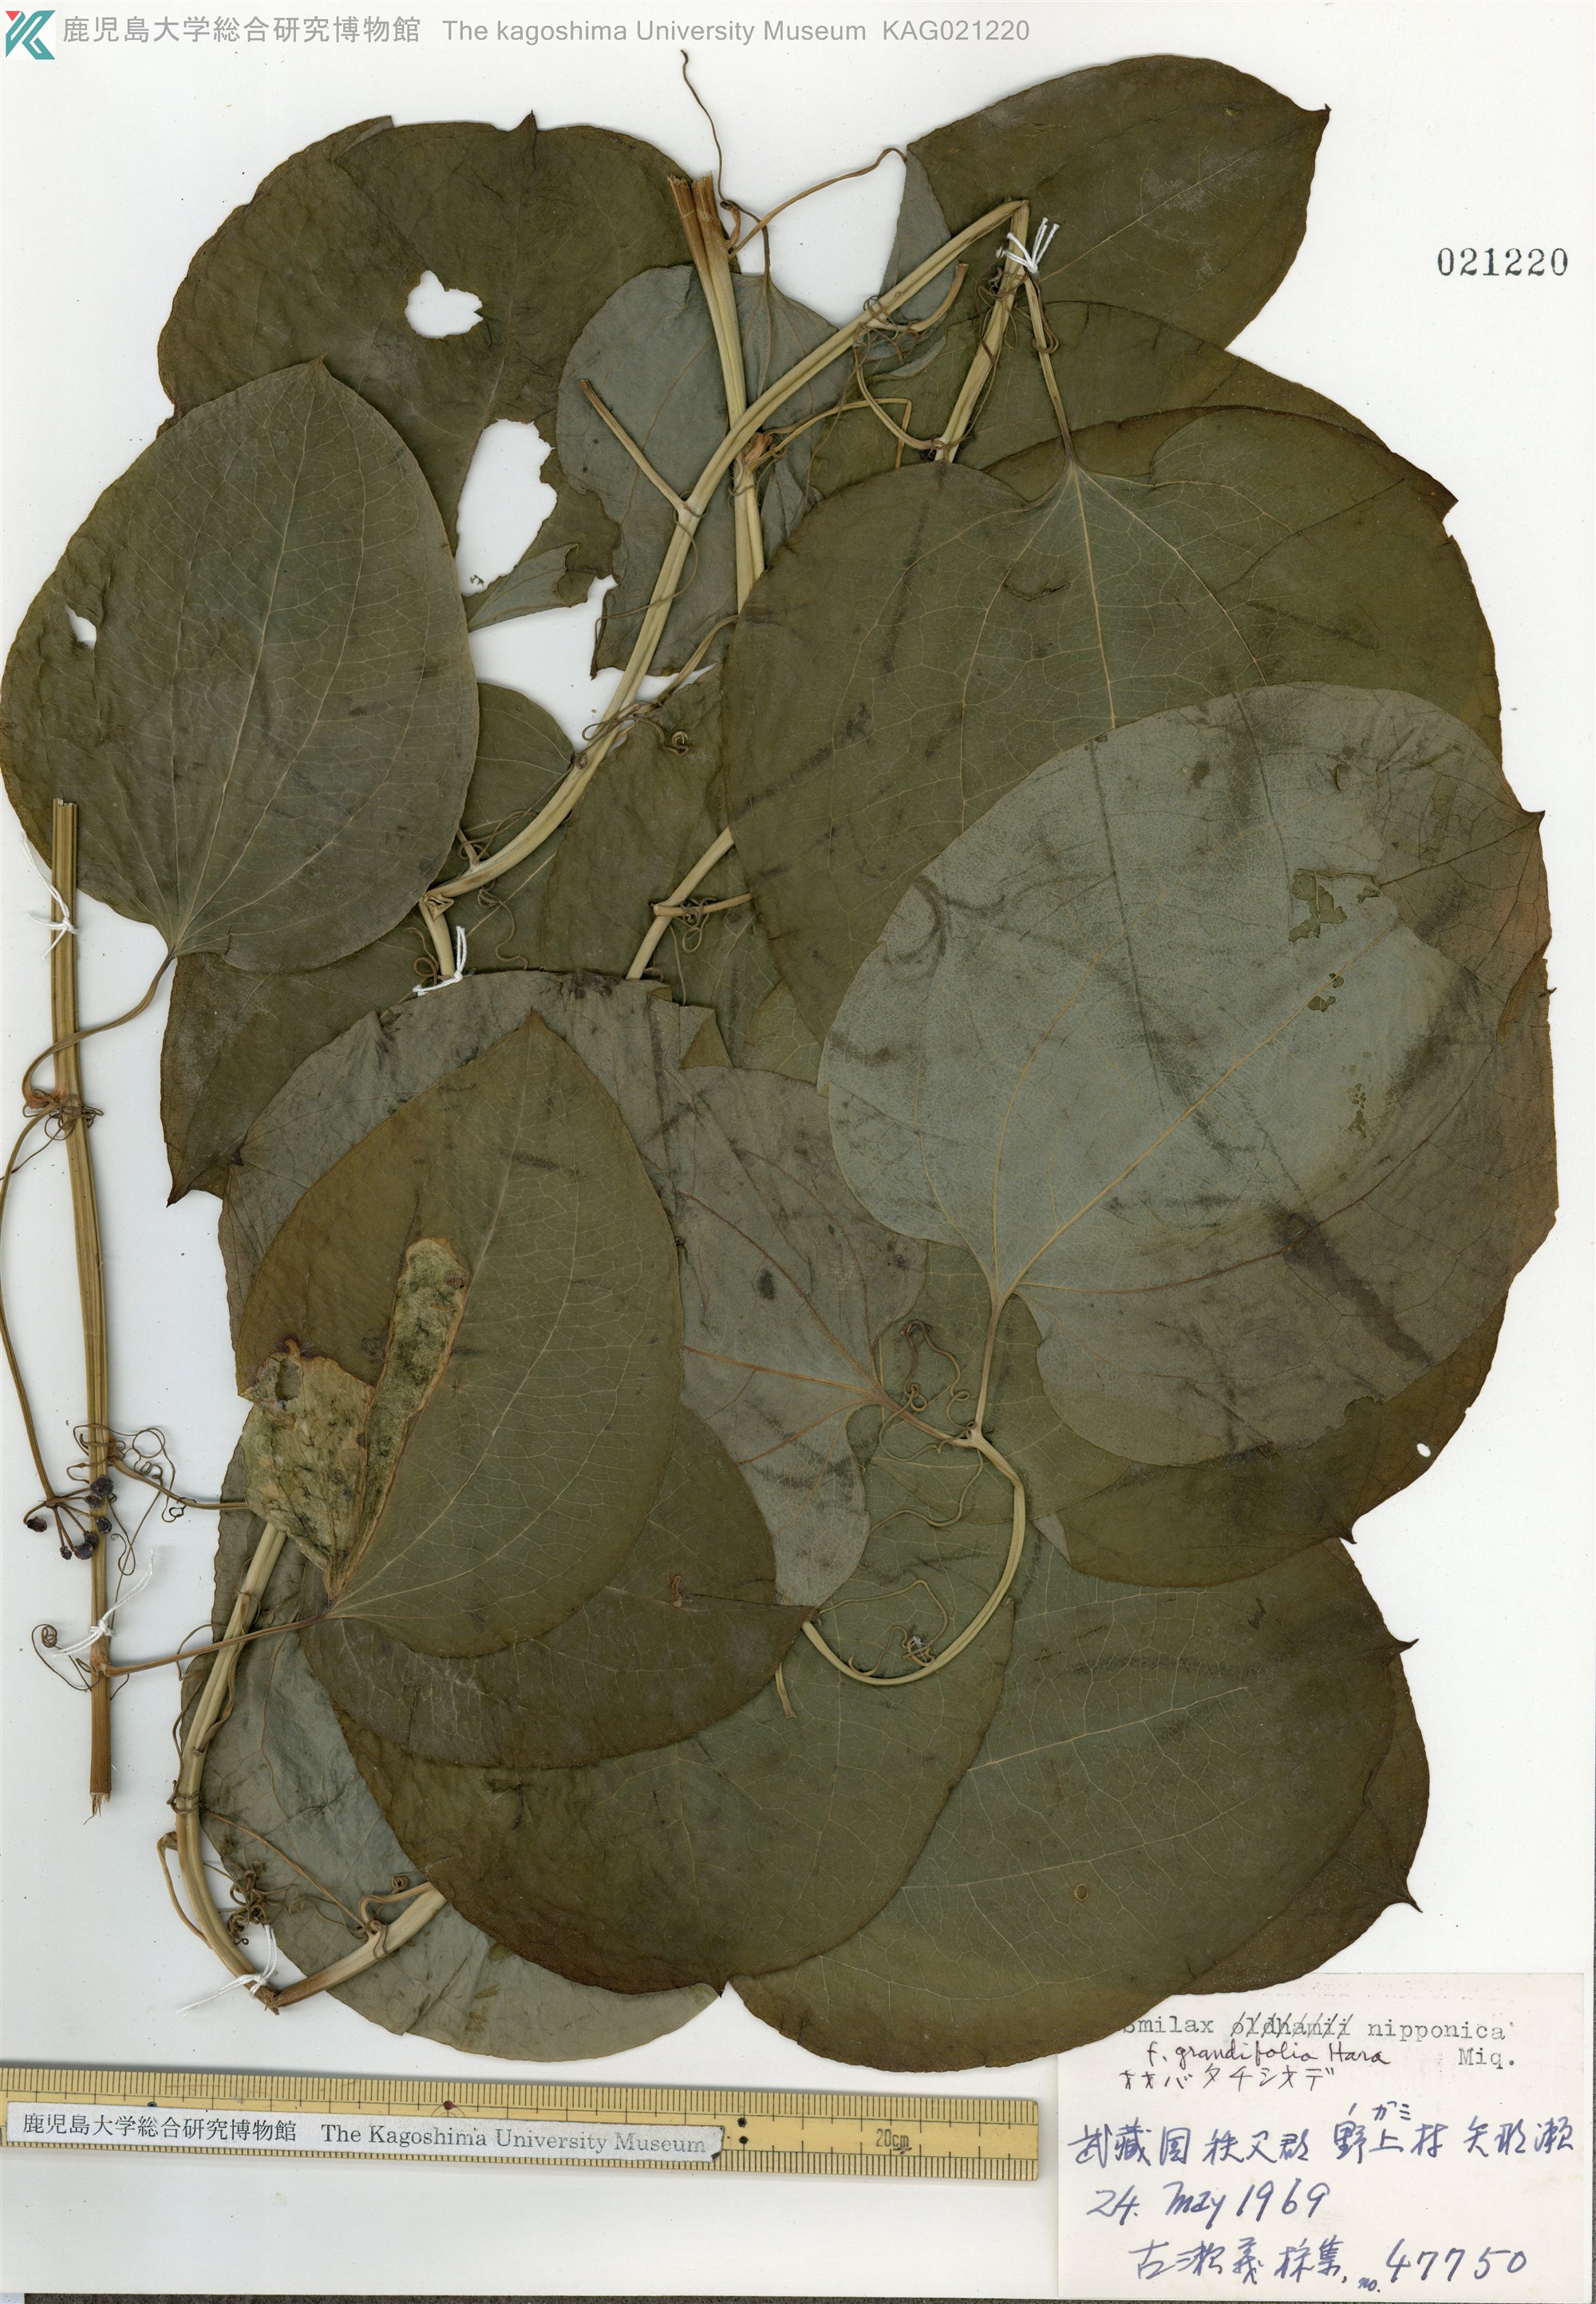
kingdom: Plantae
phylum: Tracheophyta
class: Liliopsida
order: Liliales
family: Smilacaceae
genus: Smilax
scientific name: Smilax nipponica
